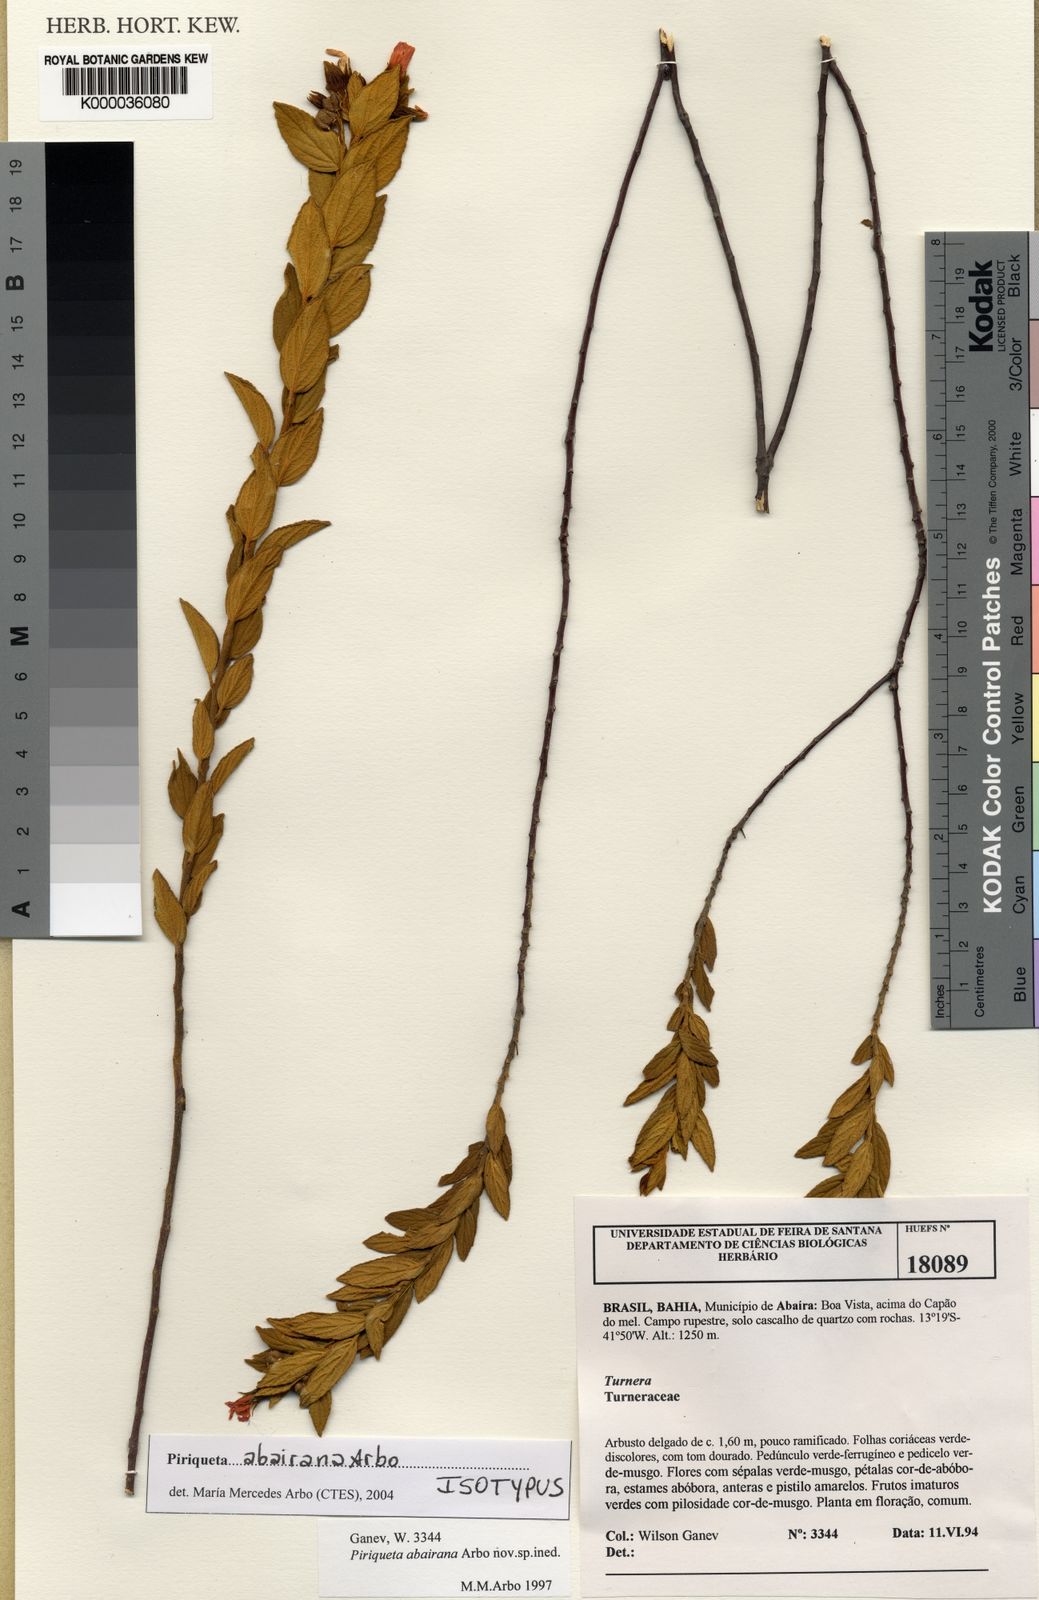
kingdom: Plantae
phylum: Tracheophyta
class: Magnoliopsida
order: Malpighiales
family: Turneraceae
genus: Piriqueta
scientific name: Piriqueta abairana
